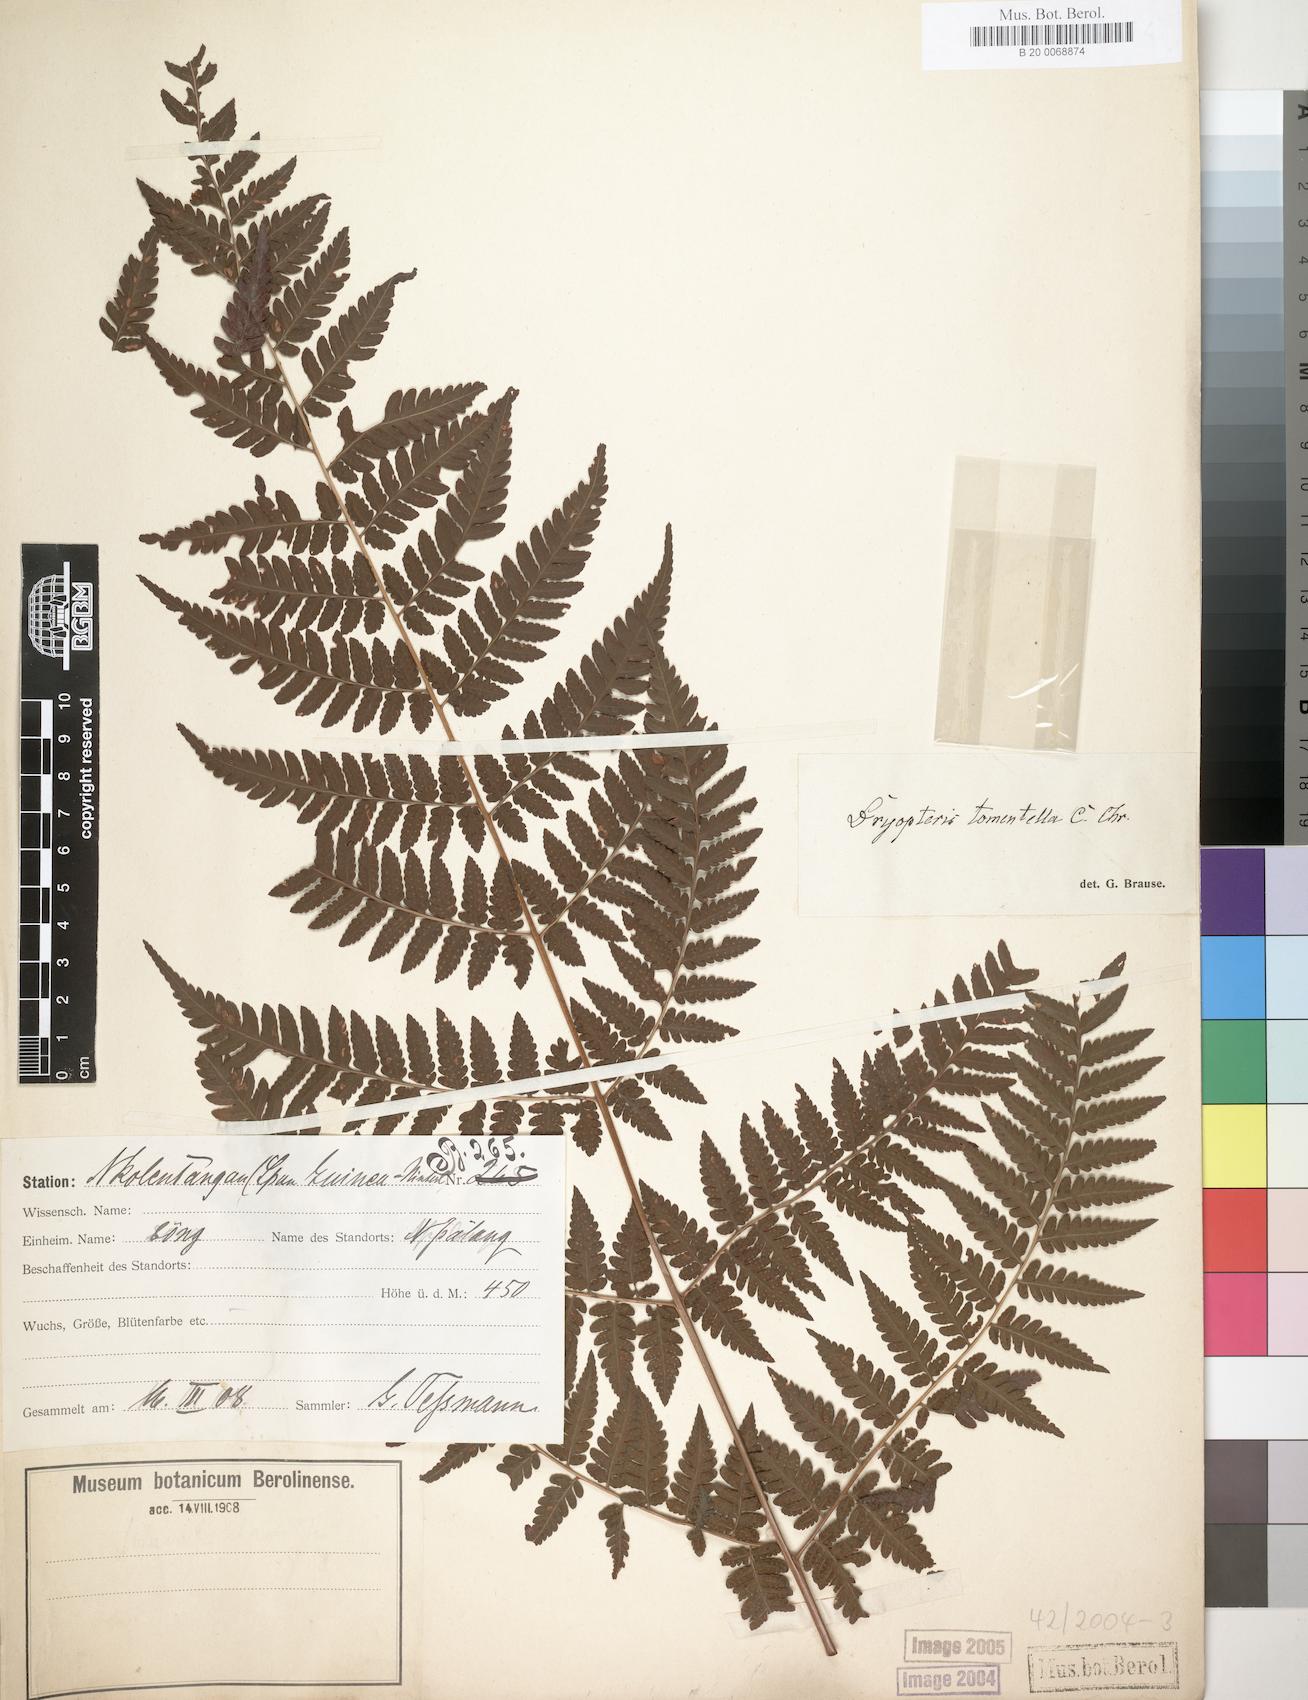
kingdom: Plantae
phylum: Tracheophyta
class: Polypodiopsida
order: Polypodiales
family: Dryopteridaceae
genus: Parapolystichum
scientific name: Parapolystichum currorii
